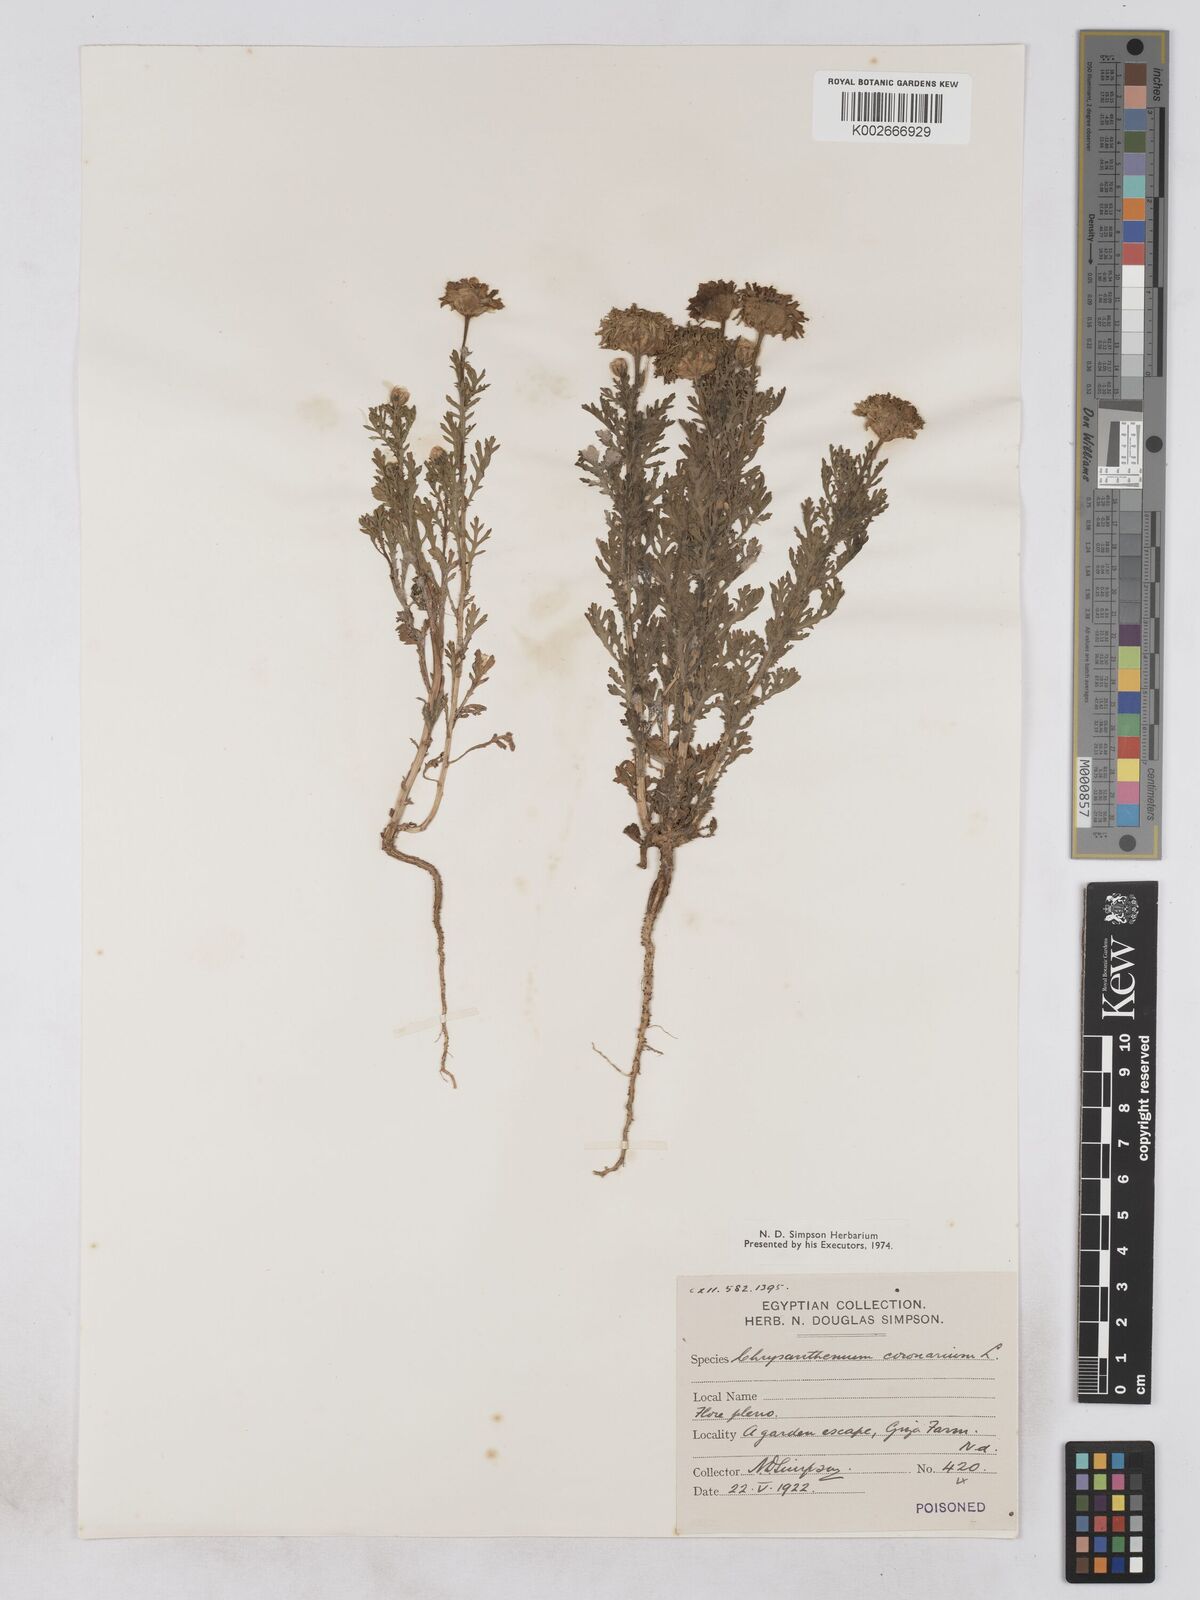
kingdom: Plantae
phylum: Tracheophyta
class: Magnoliopsida
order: Asterales
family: Asteraceae
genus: Glebionis
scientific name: Glebionis coronaria
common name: Crowndaisy
